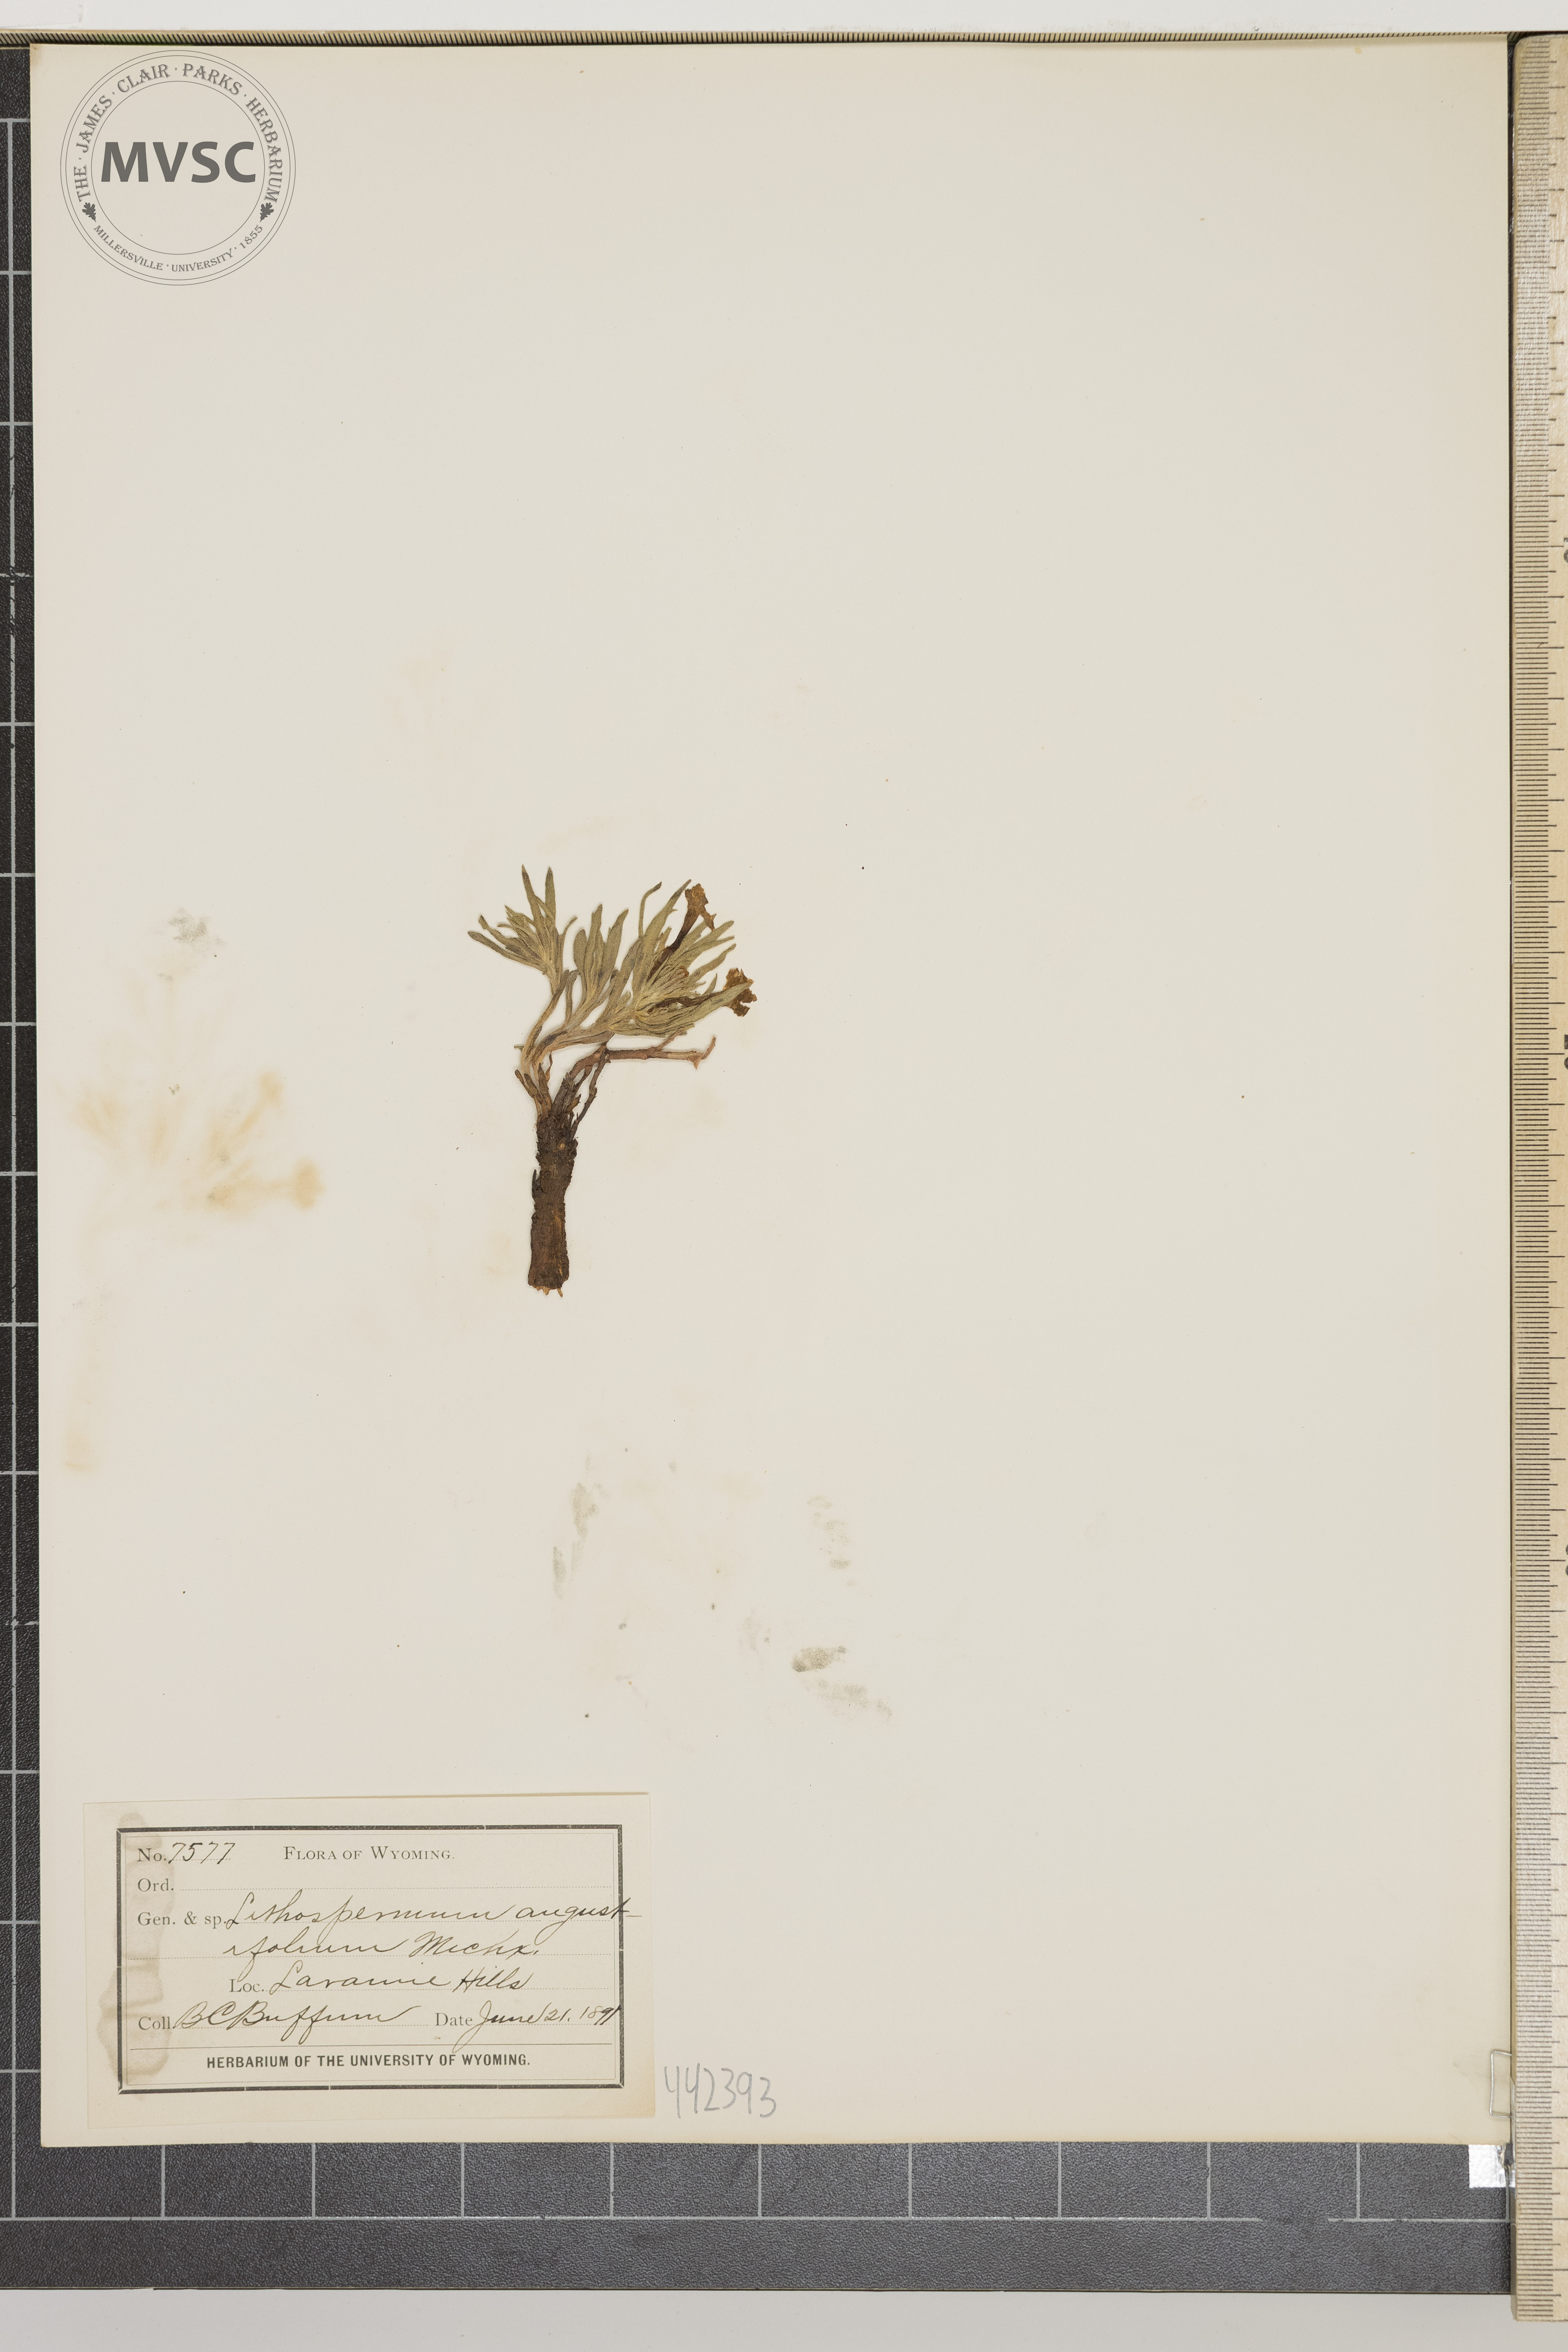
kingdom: Plantae
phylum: Tracheophyta
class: Magnoliopsida
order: Boraginales
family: Boraginaceae
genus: Lithospermum
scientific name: Lithospermum incisum
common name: Fringed gromwell
